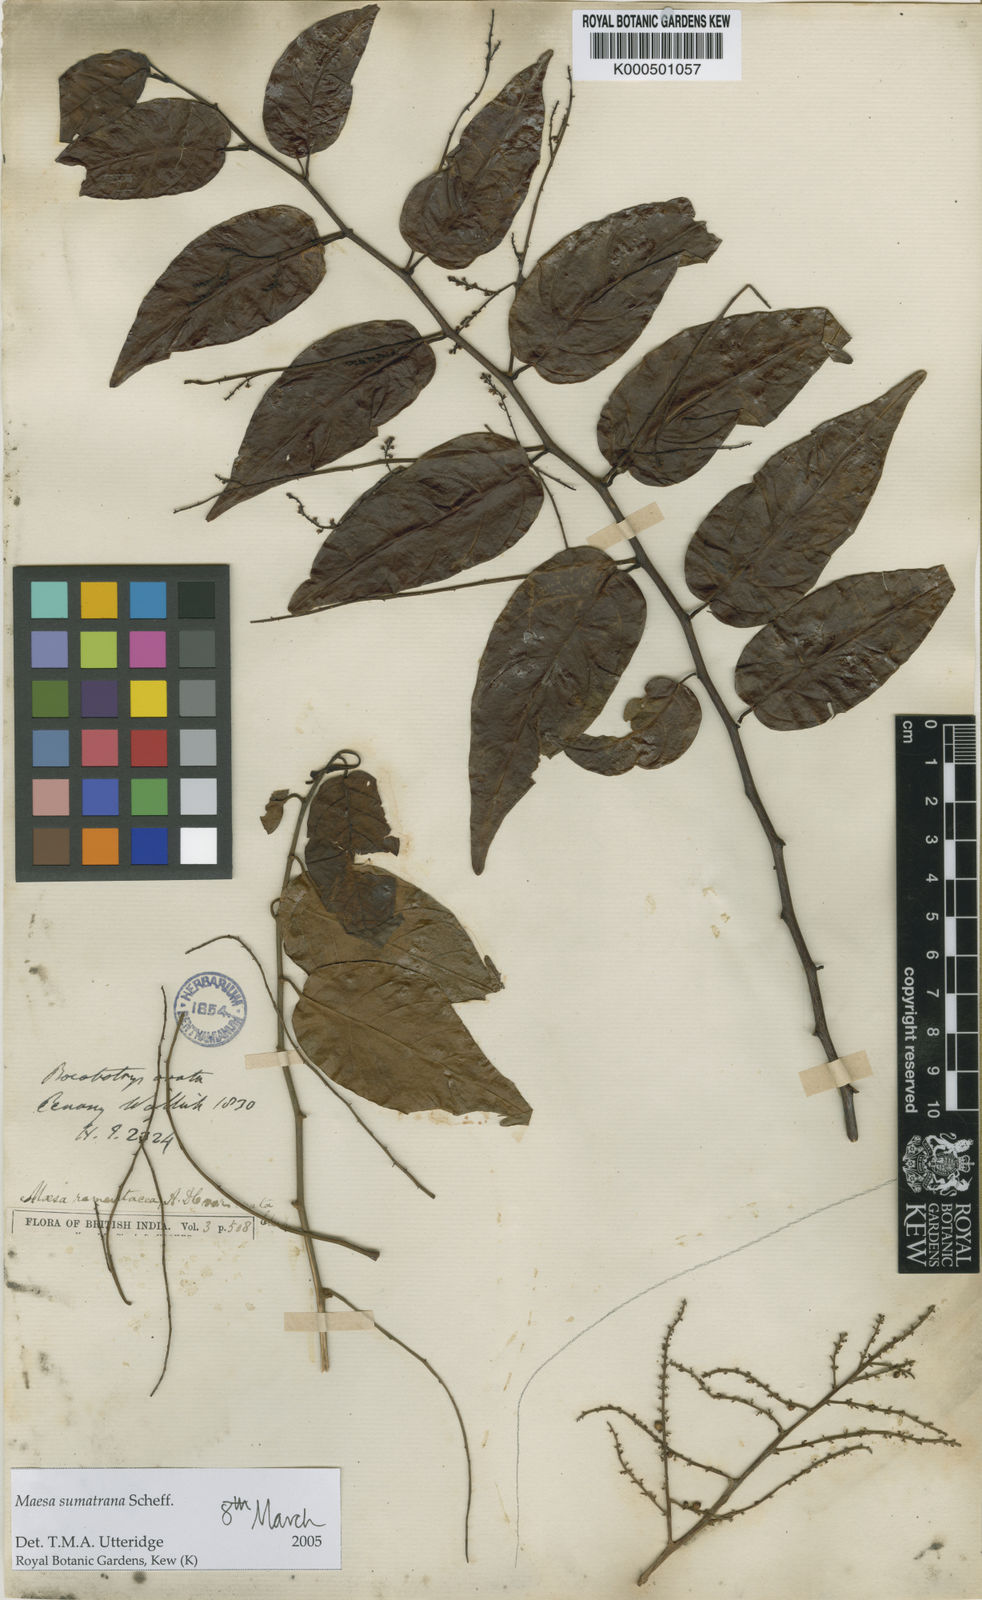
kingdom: Plantae
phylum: Tracheophyta
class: Magnoliopsida
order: Ericales
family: Primulaceae
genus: Maesa
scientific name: Maesa sumatrana
